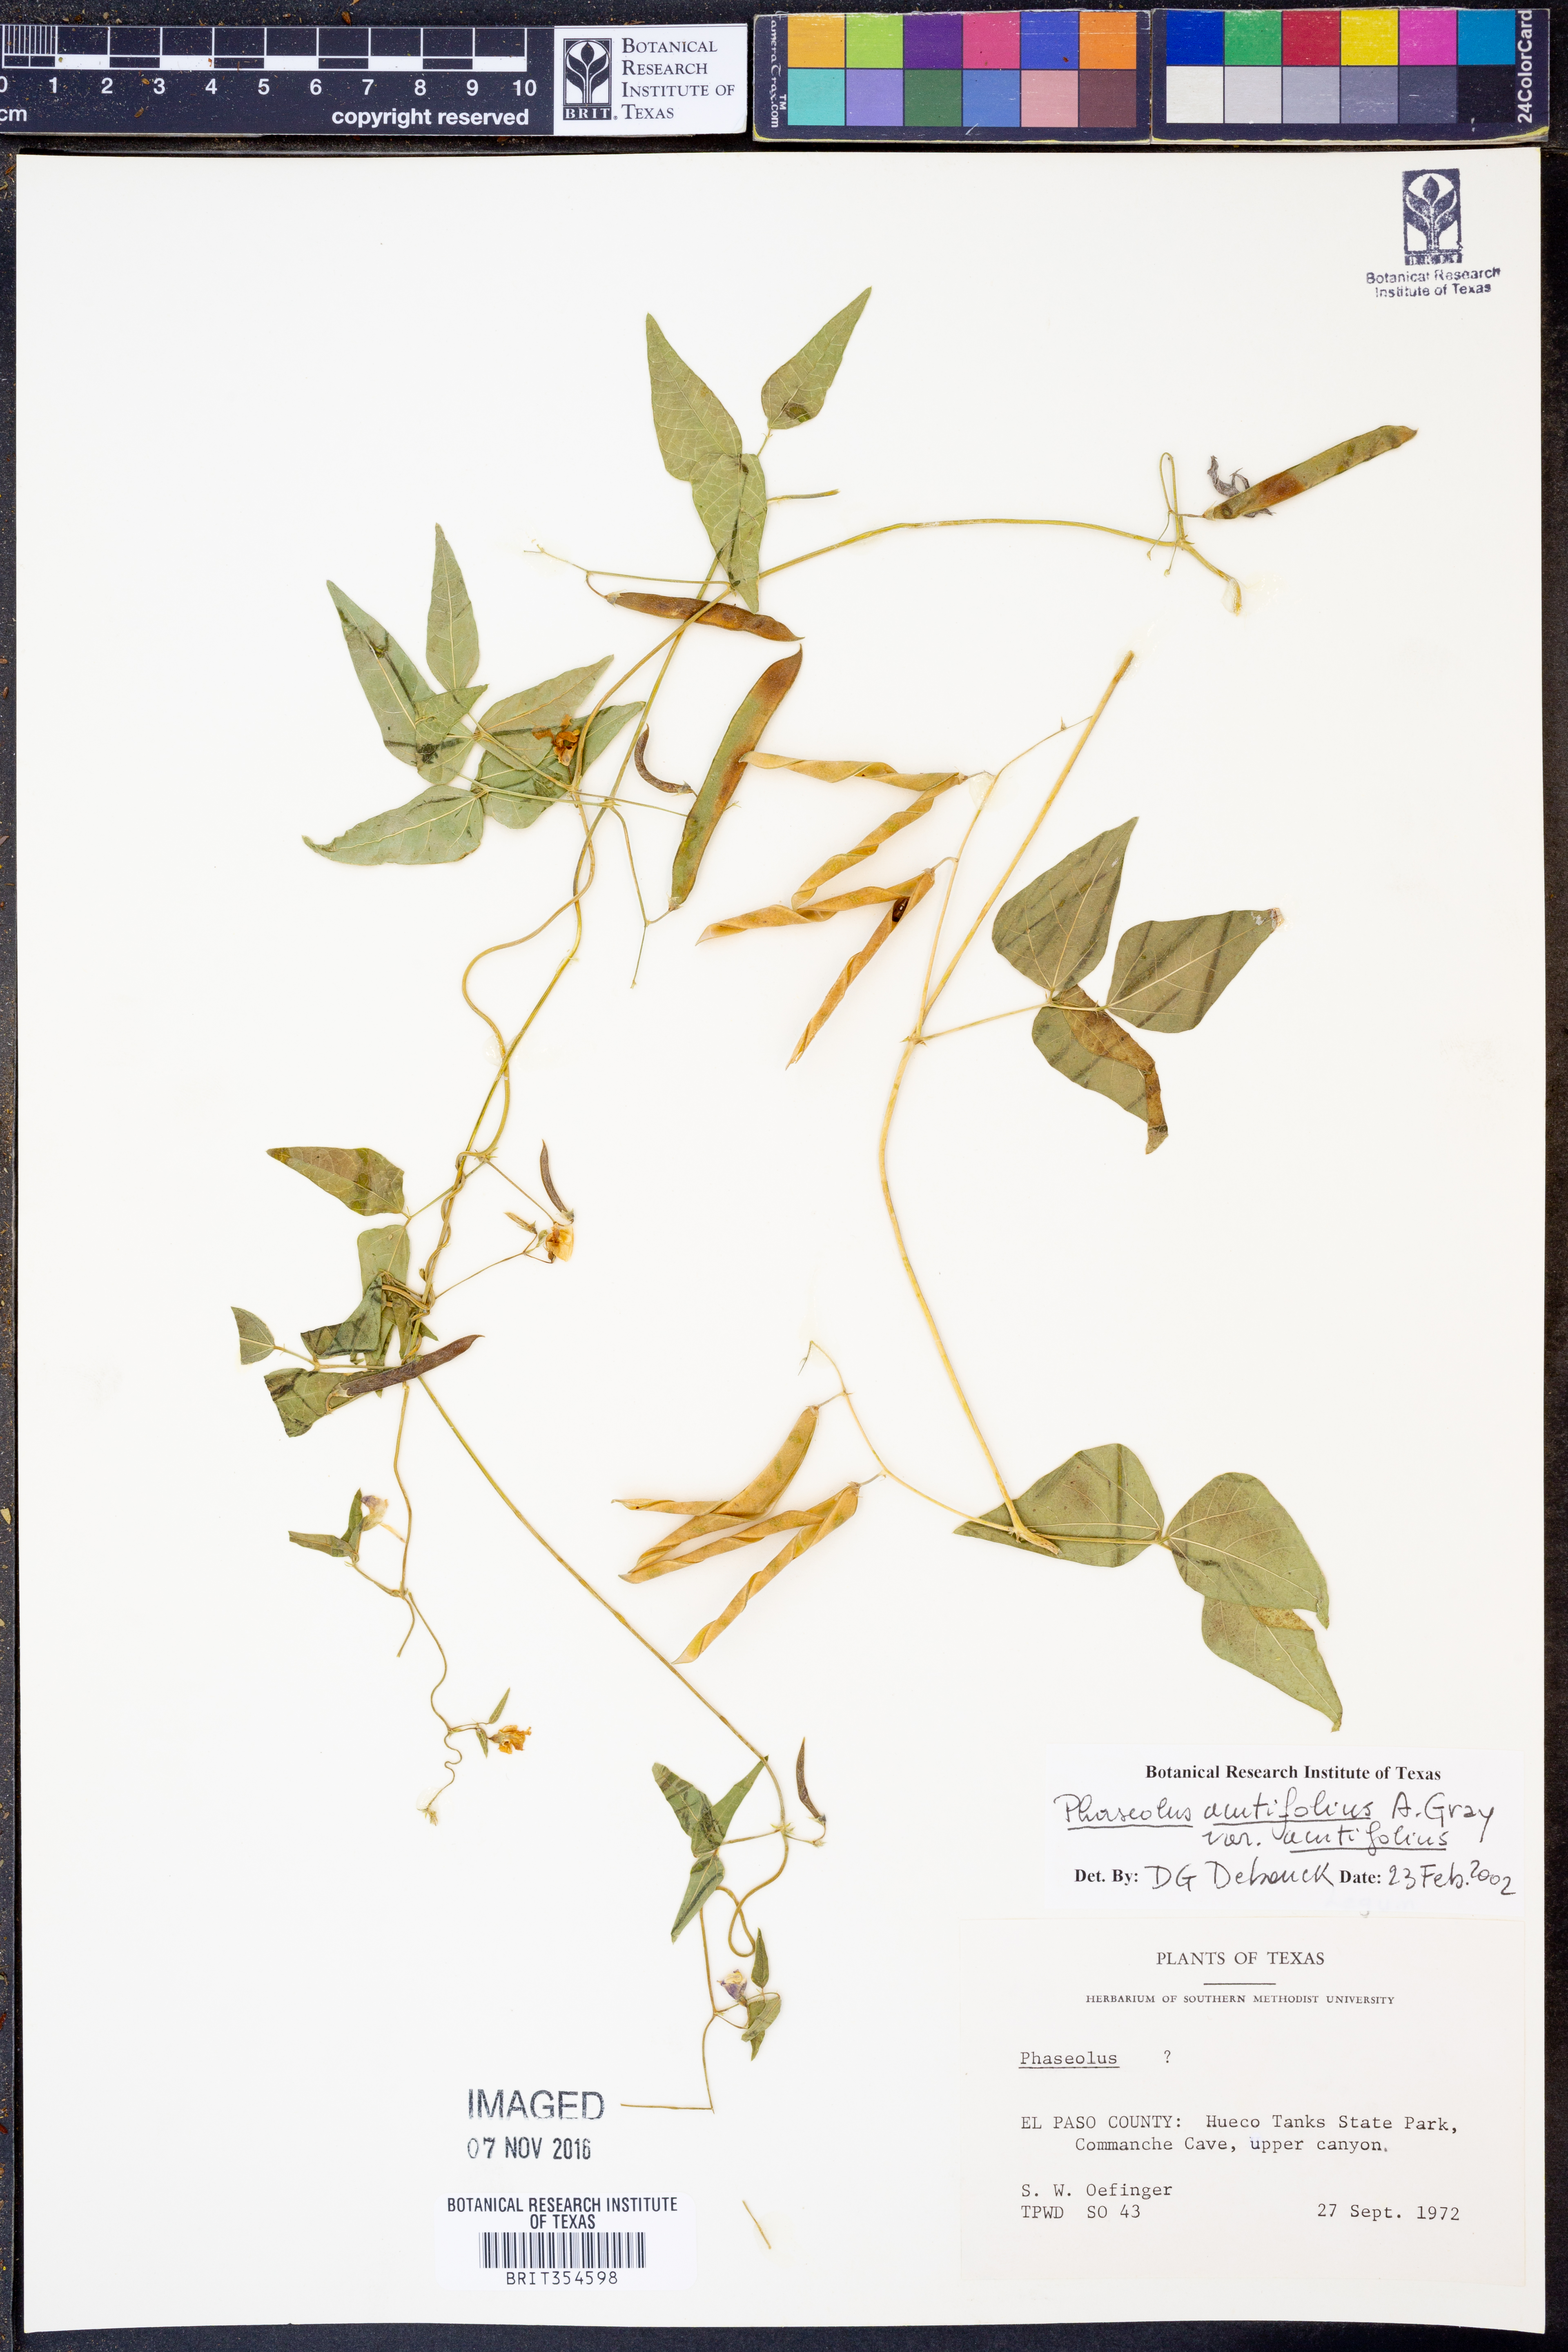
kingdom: Plantae
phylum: Tracheophyta
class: Magnoliopsida
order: Fabales
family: Fabaceae
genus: Phaseolus
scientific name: Phaseolus acutifolius
